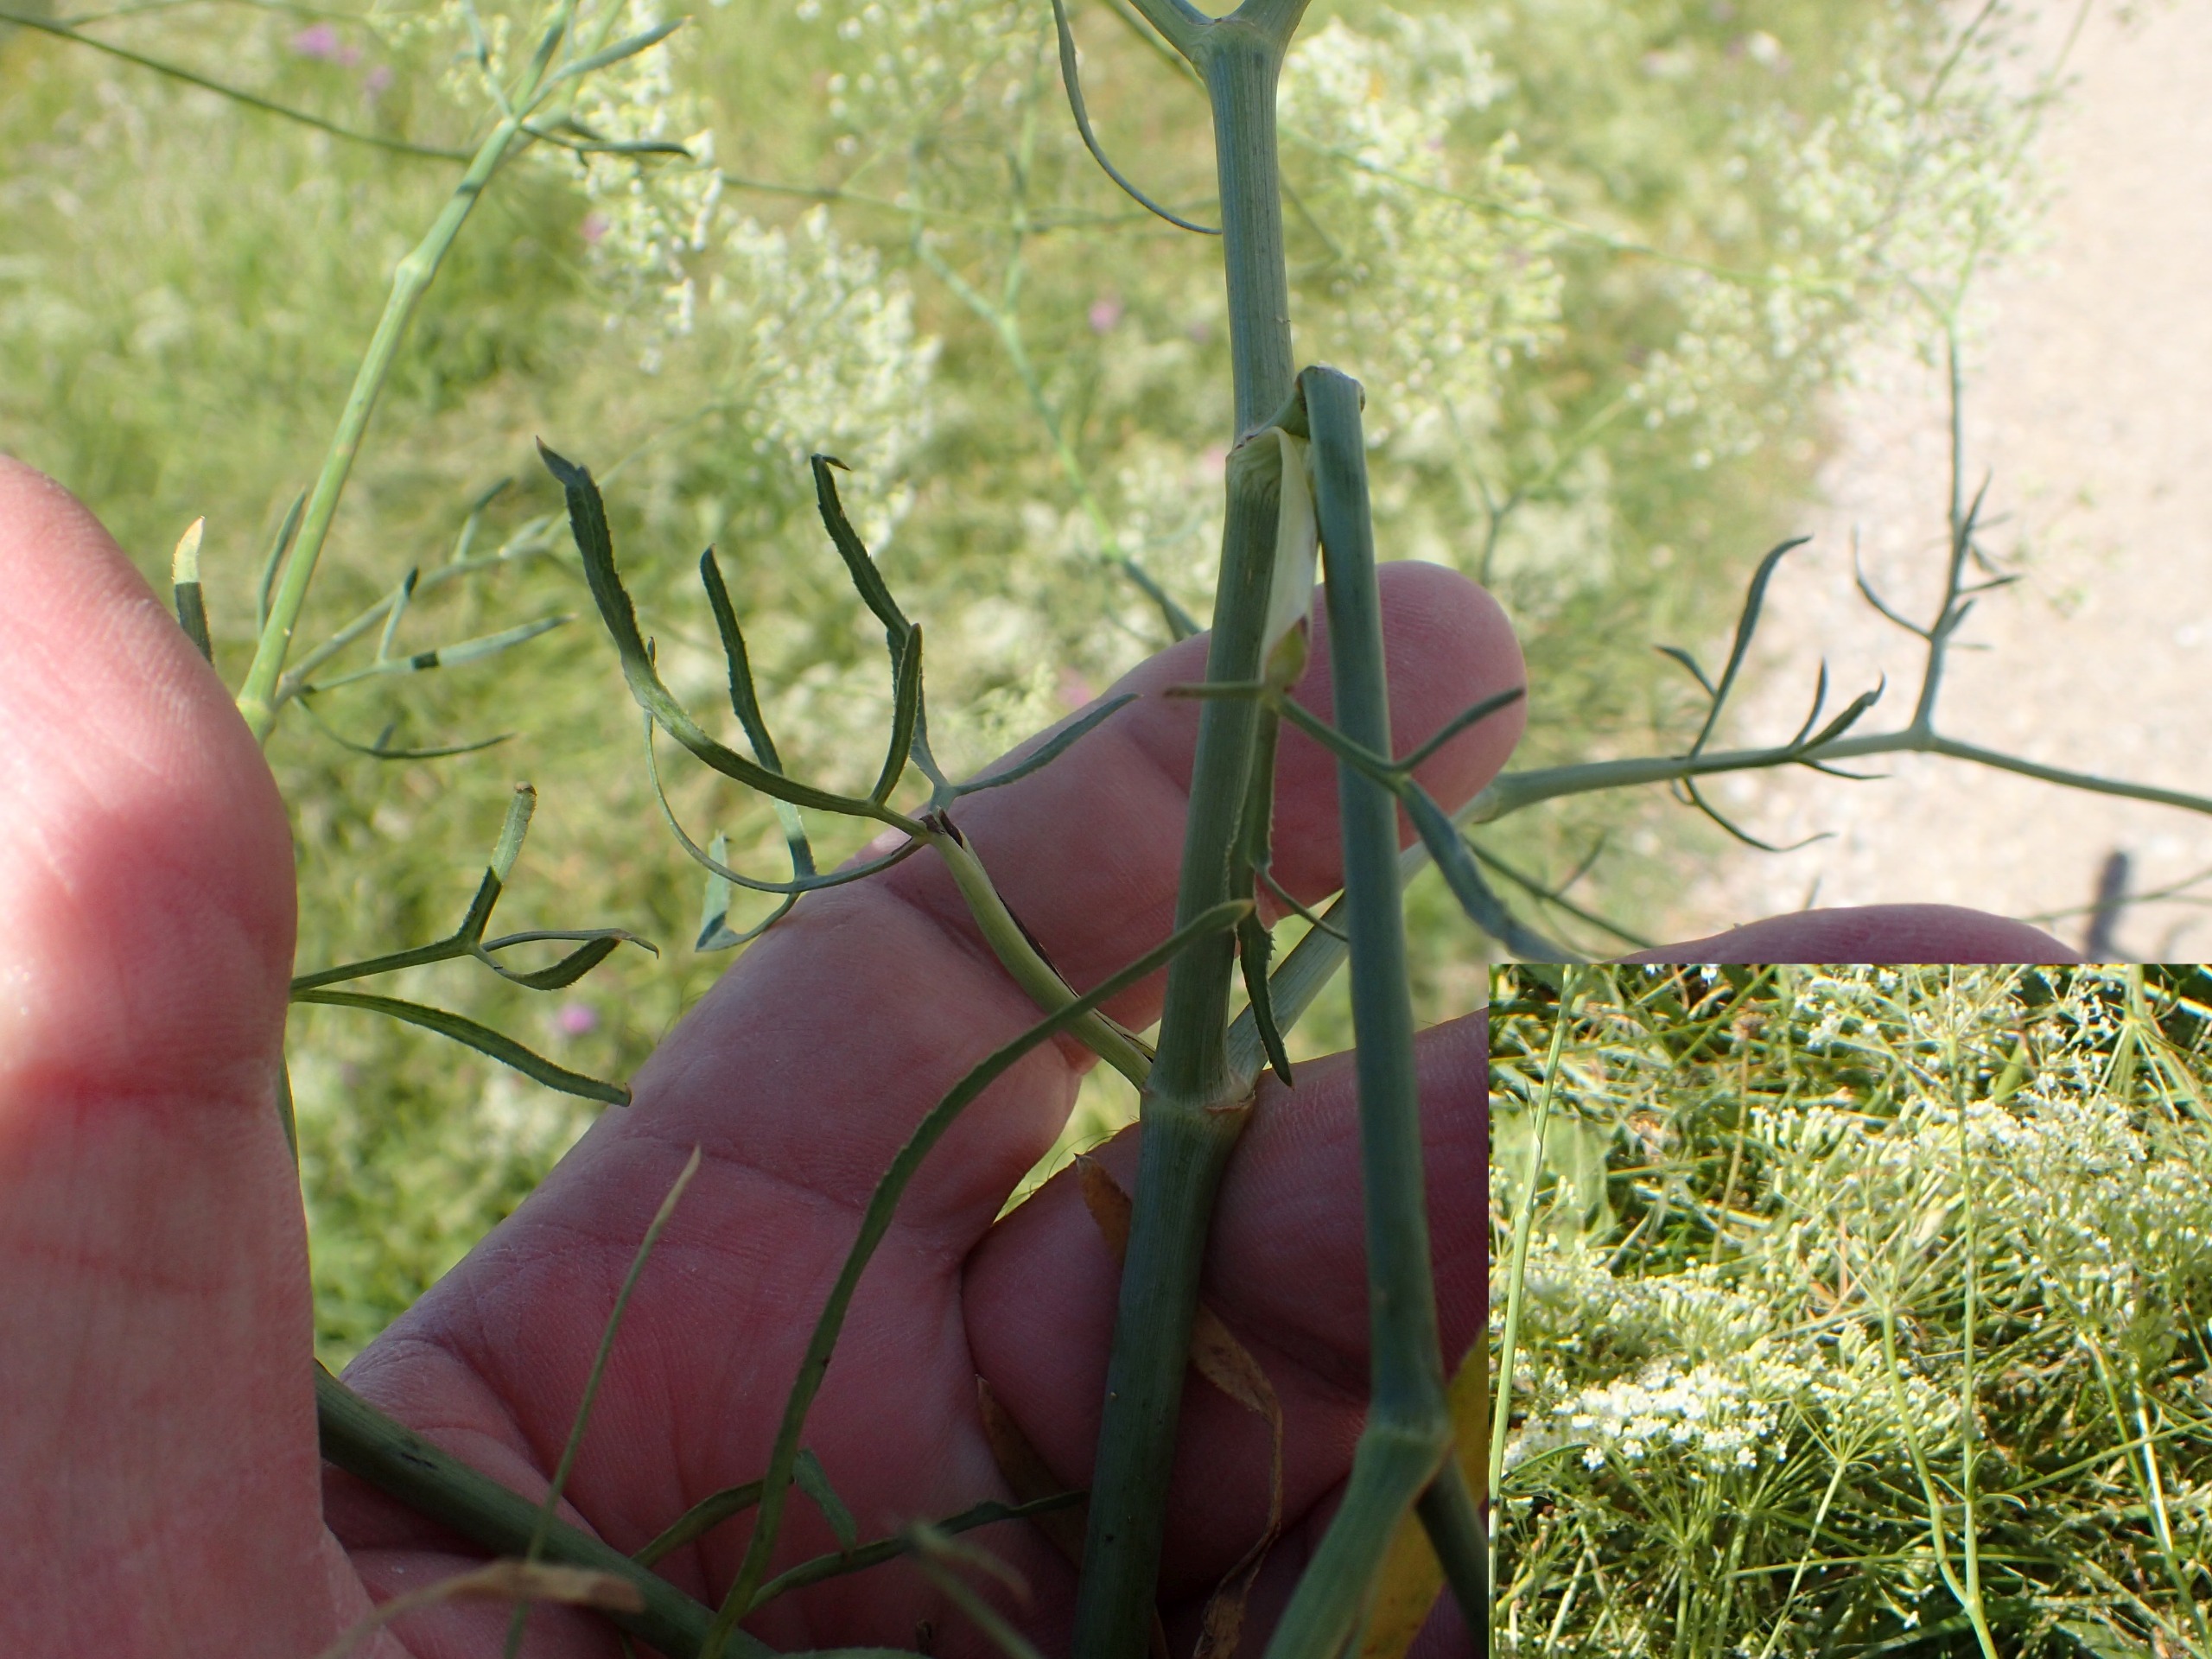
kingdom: Plantae
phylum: Tracheophyta
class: Magnoliopsida
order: Apiales
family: Apiaceae
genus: Falcaria
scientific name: Falcaria vulgaris
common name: Seglblad
